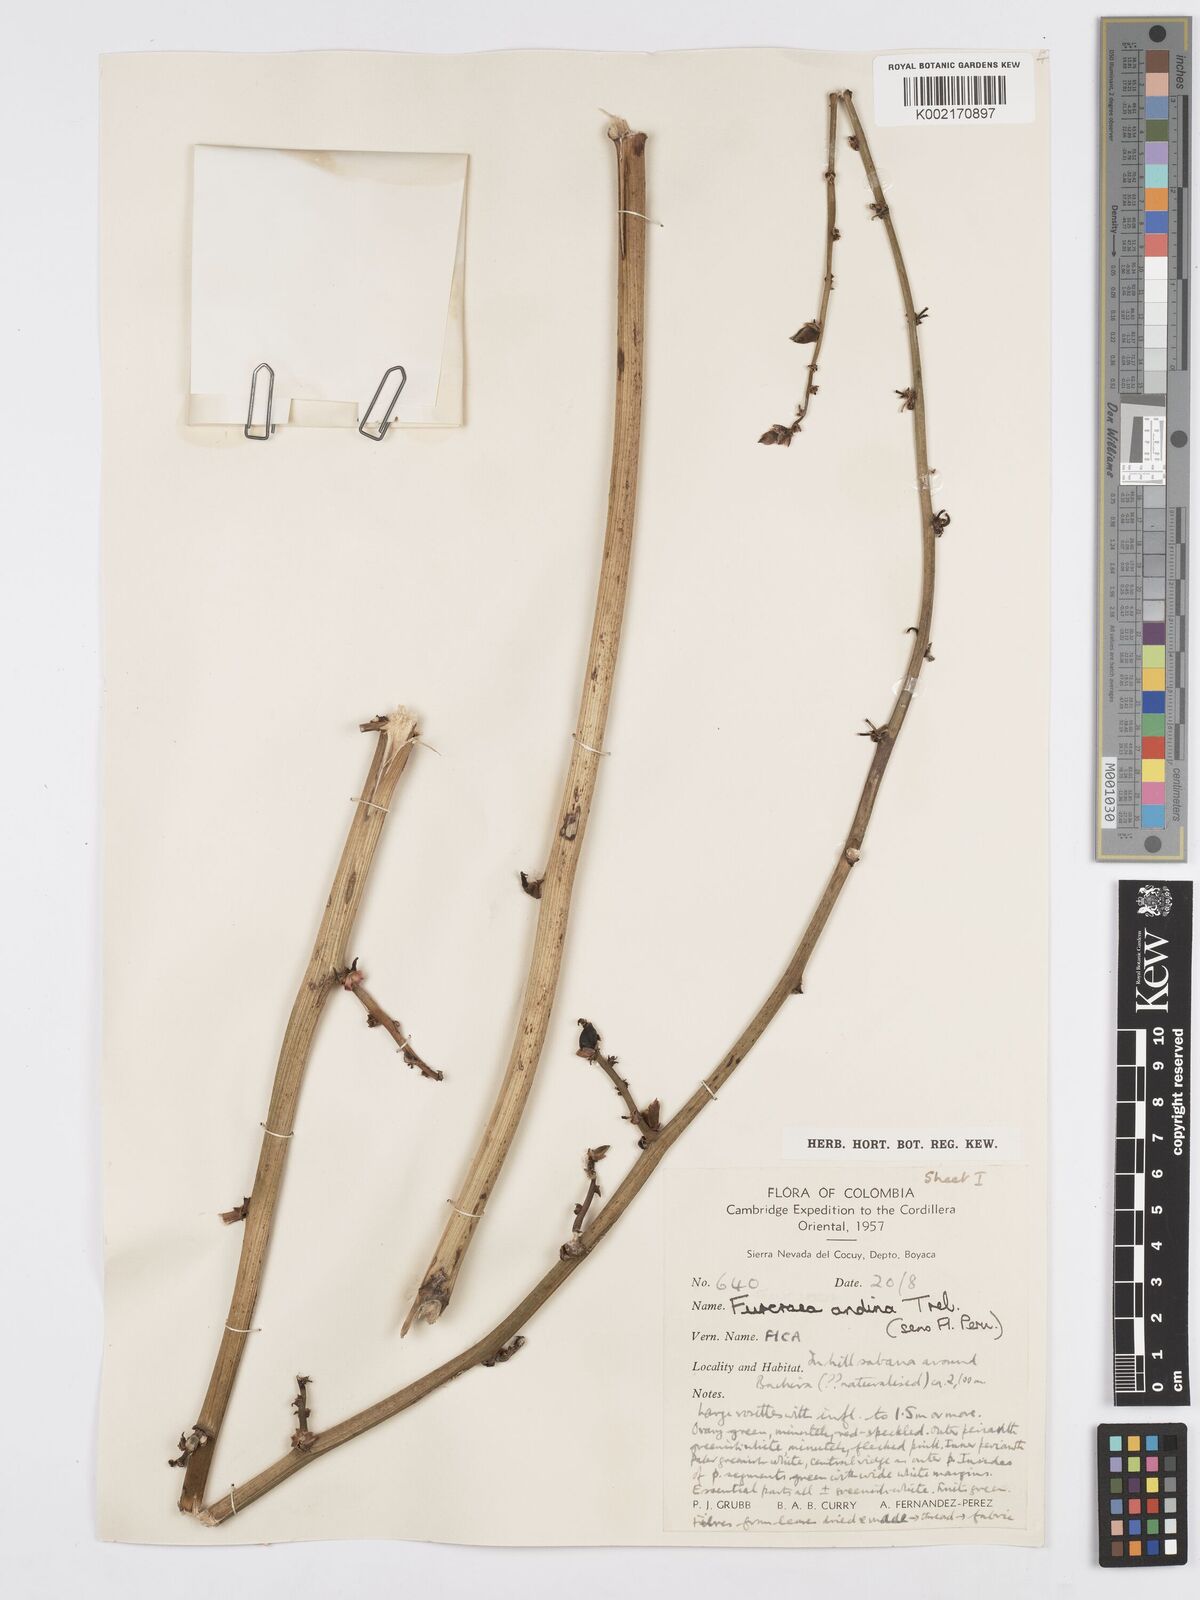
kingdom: Plantae
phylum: Tracheophyta
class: Liliopsida
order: Asparagales
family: Asparagaceae
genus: Furcraea
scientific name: Furcraea andina
